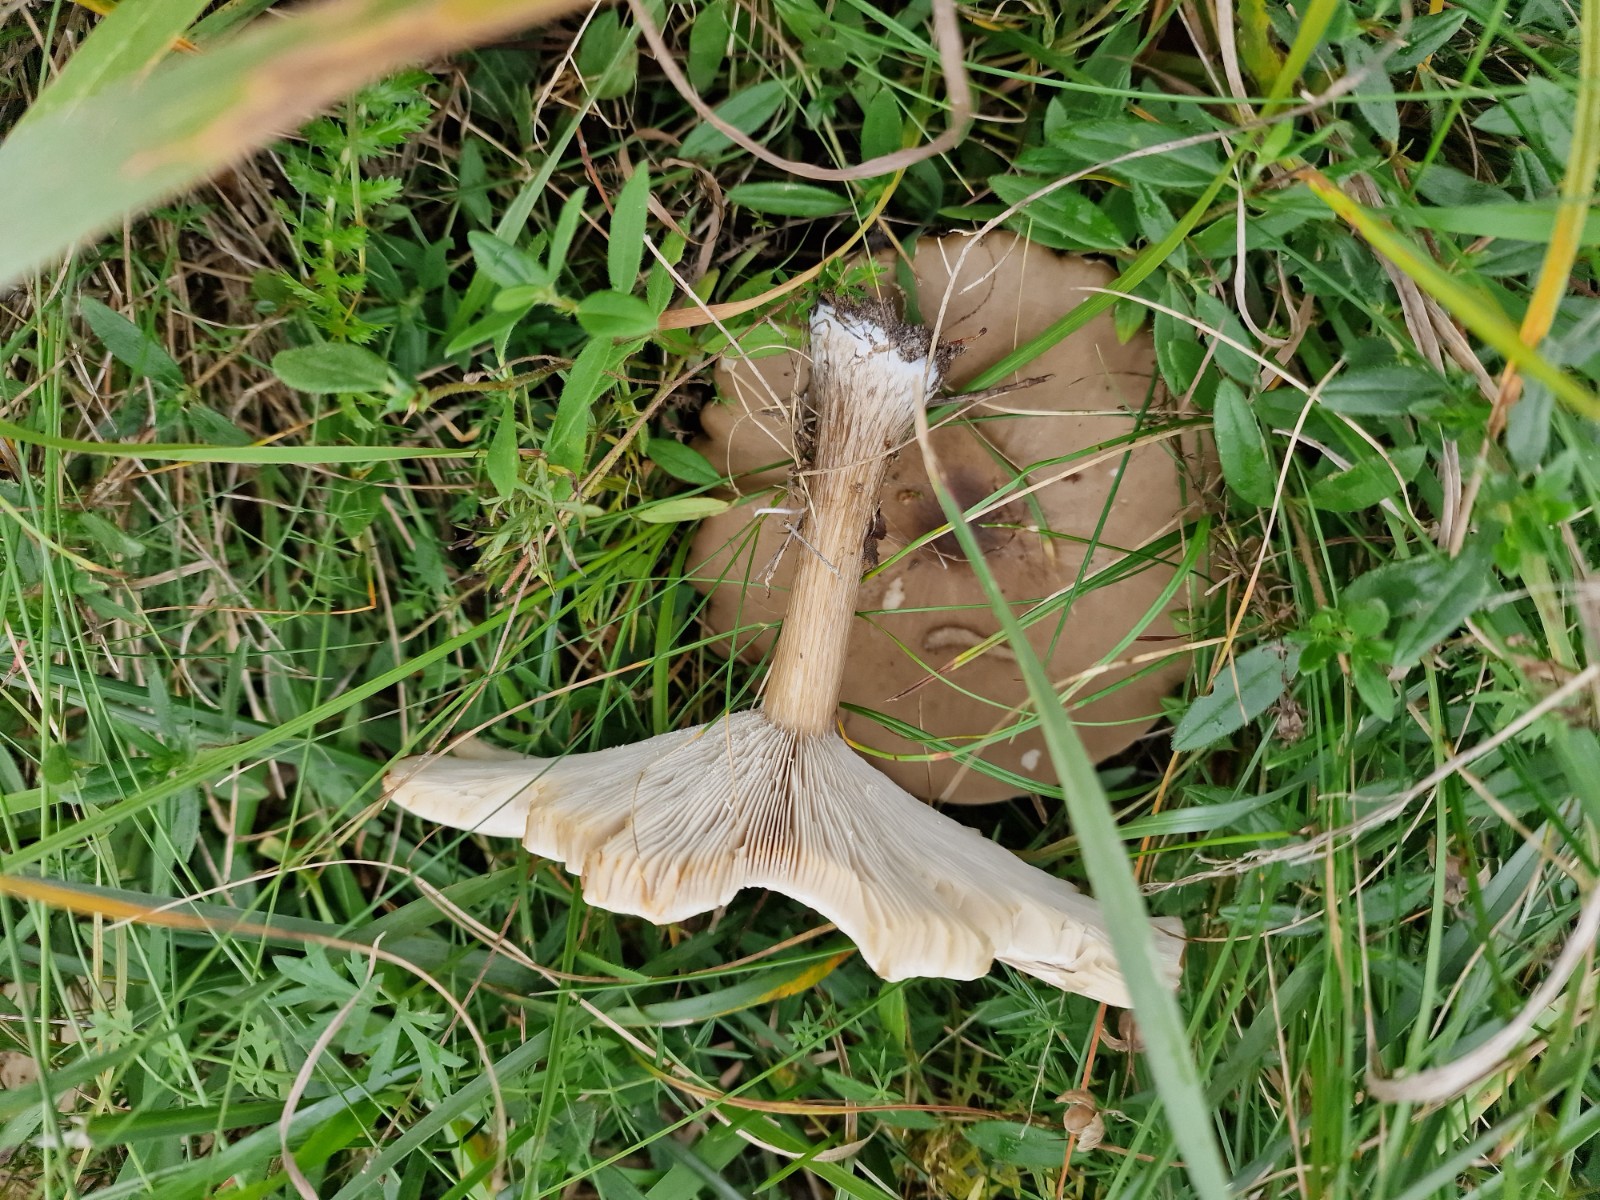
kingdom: Fungi
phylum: Basidiomycota
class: Agaricomycetes
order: Agaricales
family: Tricholomataceae
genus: Melanoleuca
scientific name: Melanoleuca grammopodia
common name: stribestokket munkehat
